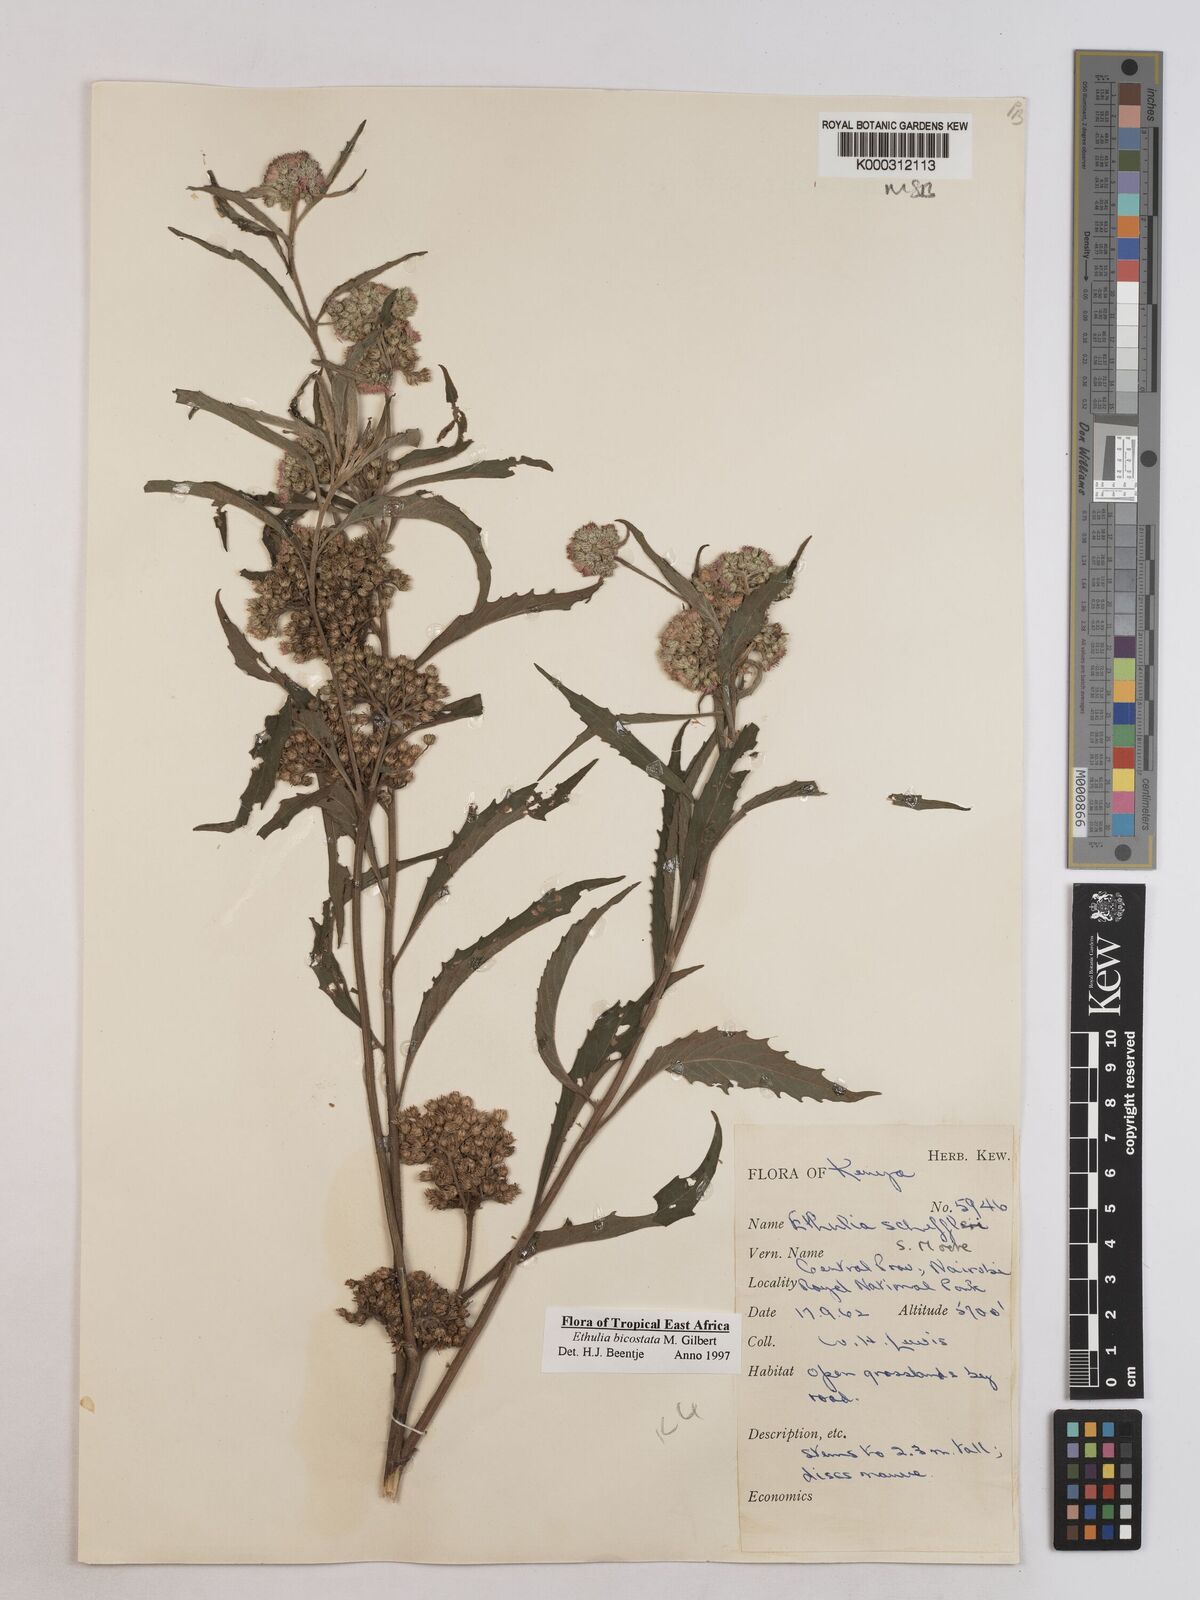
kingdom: Plantae
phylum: Tracheophyta
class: Magnoliopsida
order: Asterales
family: Asteraceae
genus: Ethulia
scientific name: Ethulia bicostata
